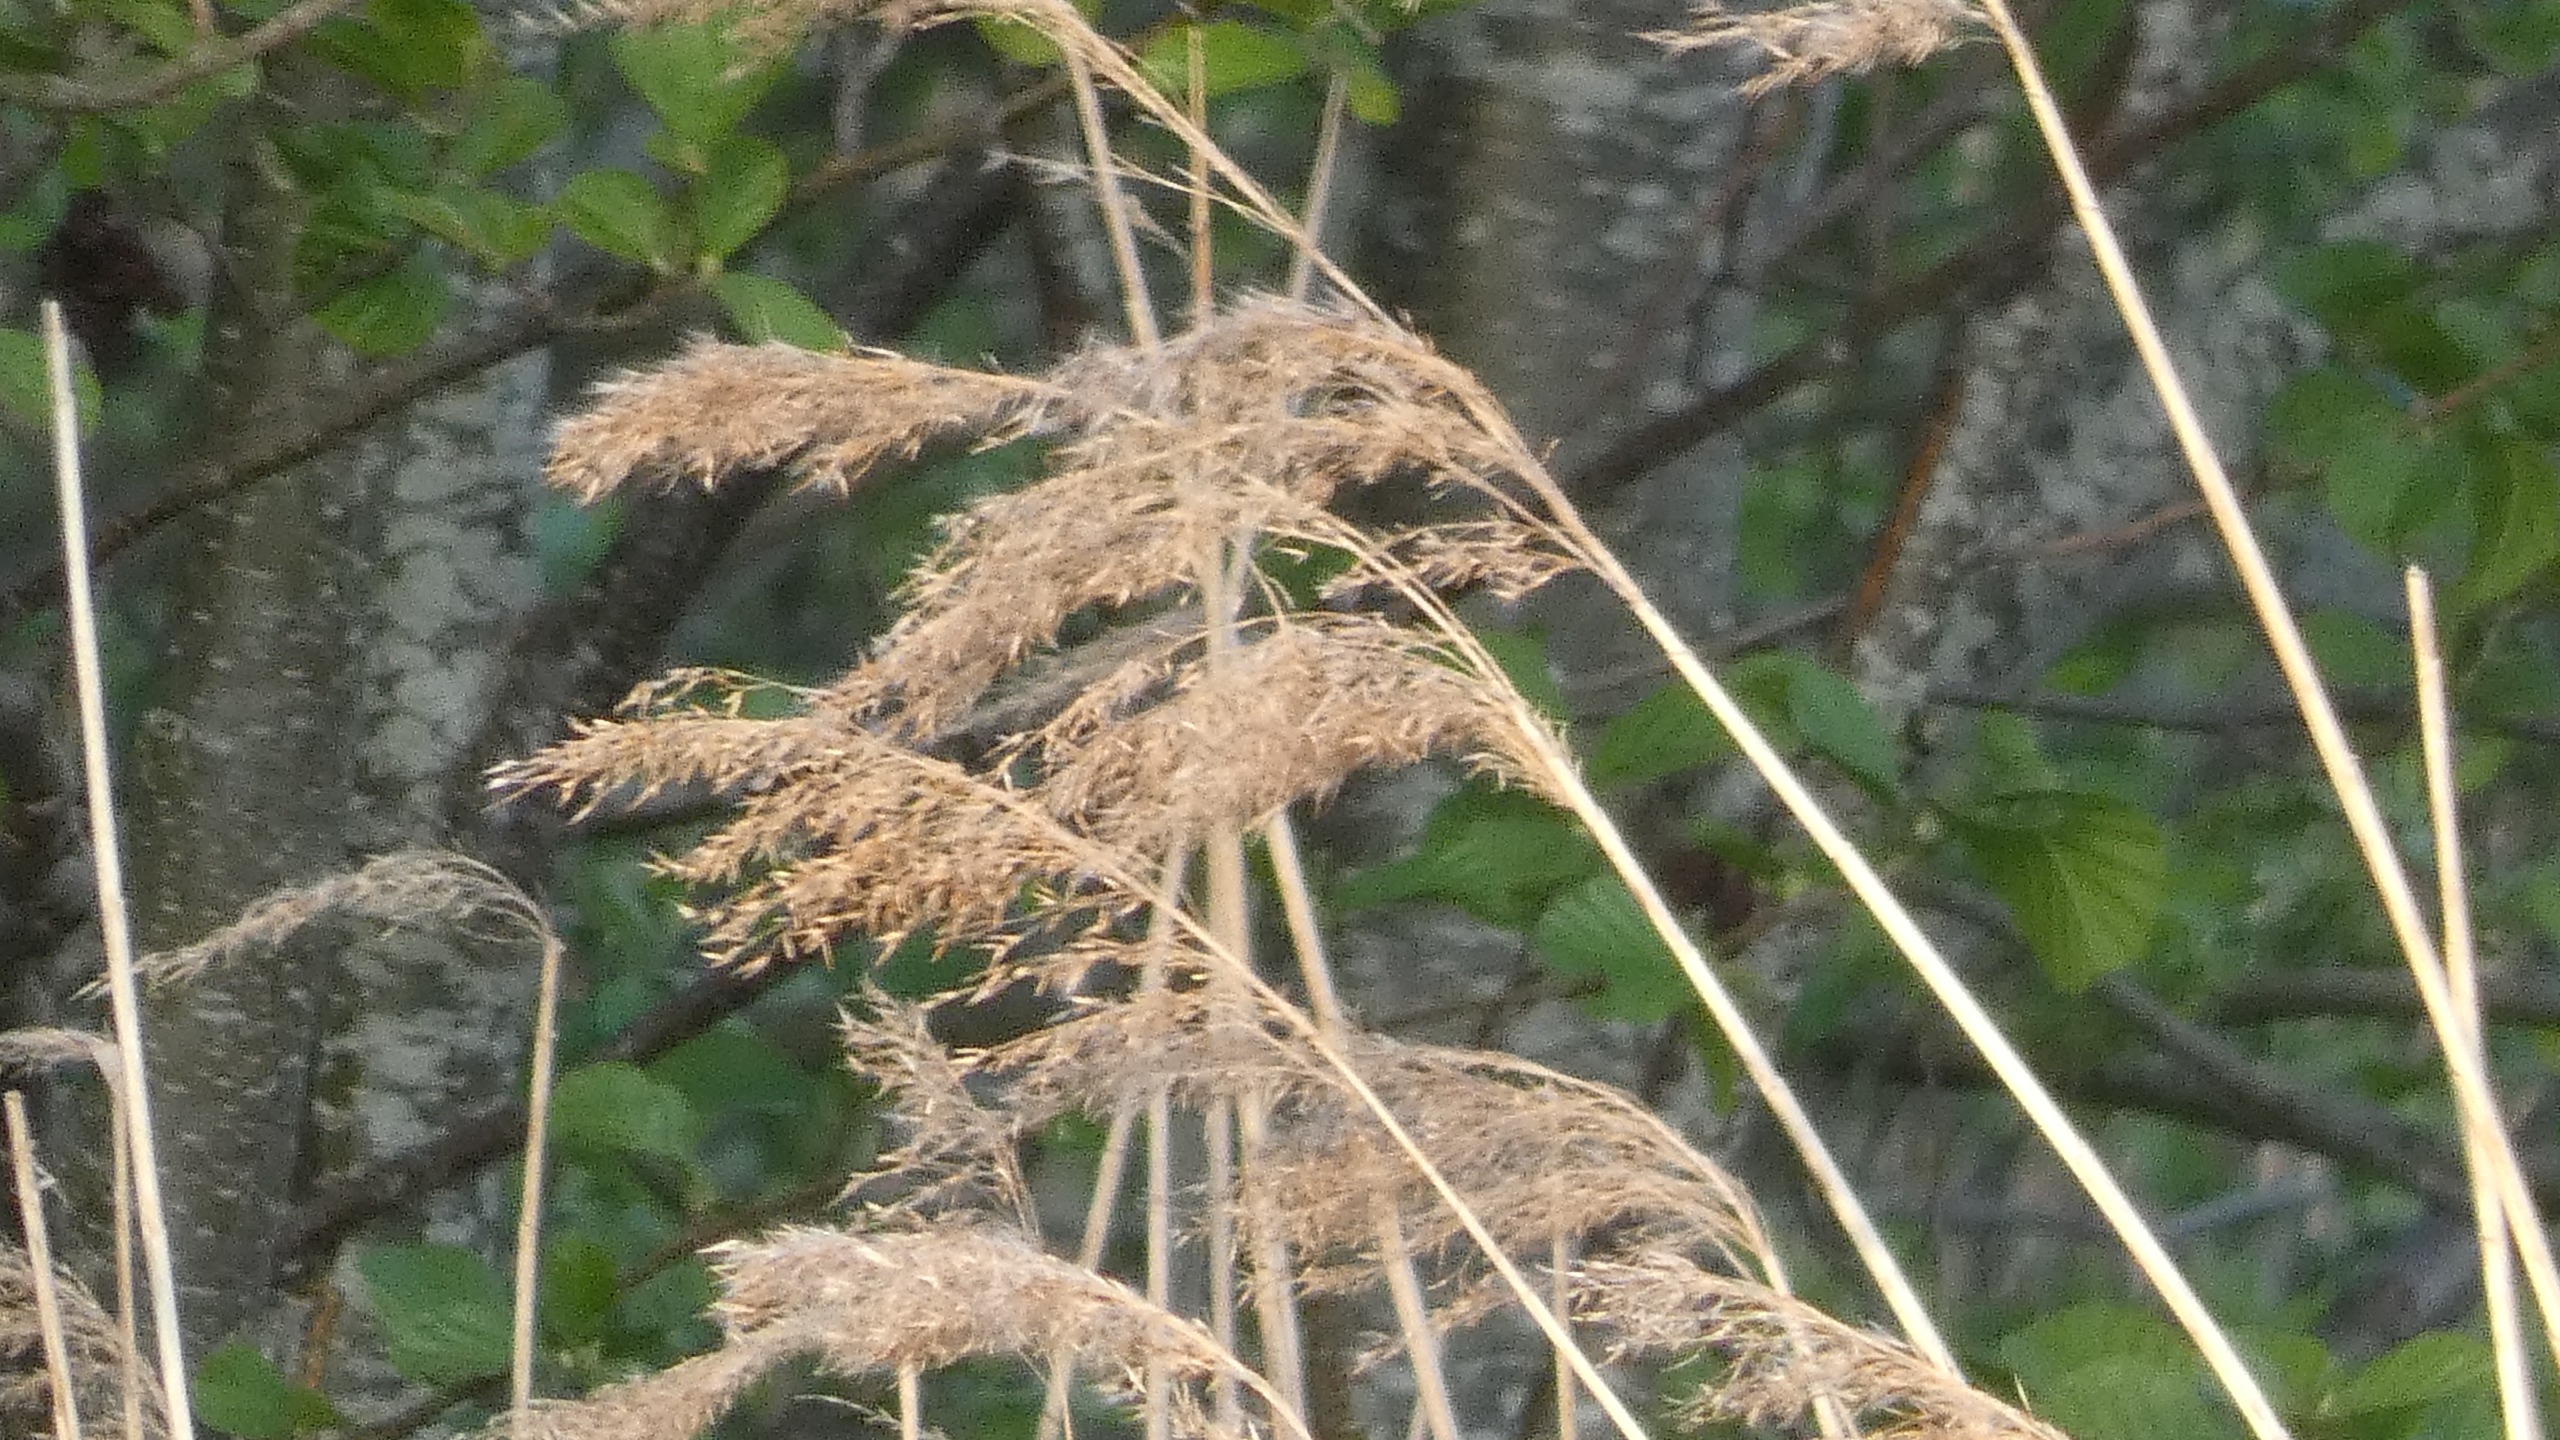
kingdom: Plantae
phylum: Tracheophyta
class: Liliopsida
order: Poales
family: Poaceae
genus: Phragmites
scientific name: Phragmites australis
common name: Tagrør
